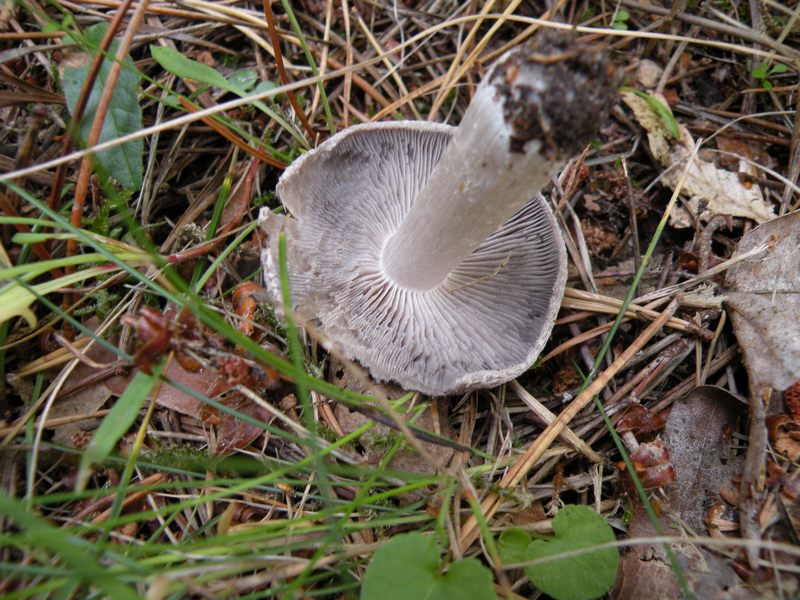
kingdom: Fungi
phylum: Basidiomycota
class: Agaricomycetes
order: Agaricales
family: Tricholomataceae
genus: Tricholoma
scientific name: Tricholoma terreum
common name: jordfarvet ridderhat
